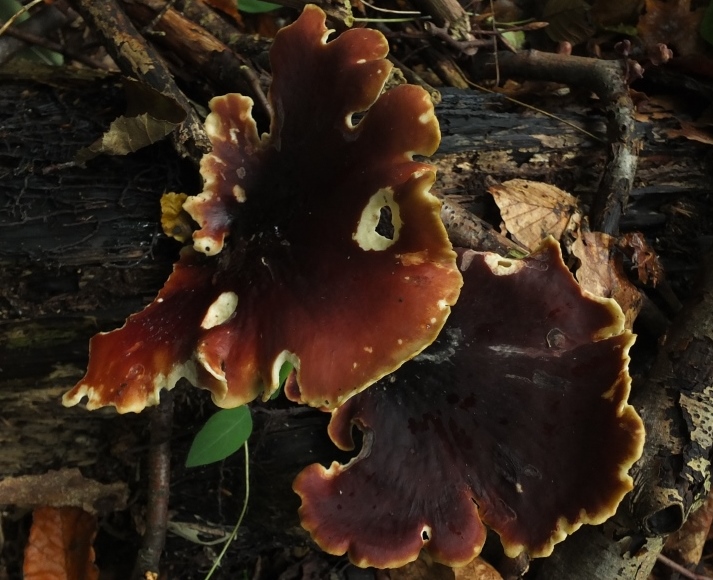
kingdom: Fungi
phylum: Basidiomycota
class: Agaricomycetes
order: Polyporales
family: Polyporaceae
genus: Picipes
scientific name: Picipes badius
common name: kastaniebrun stilkporesvamp
